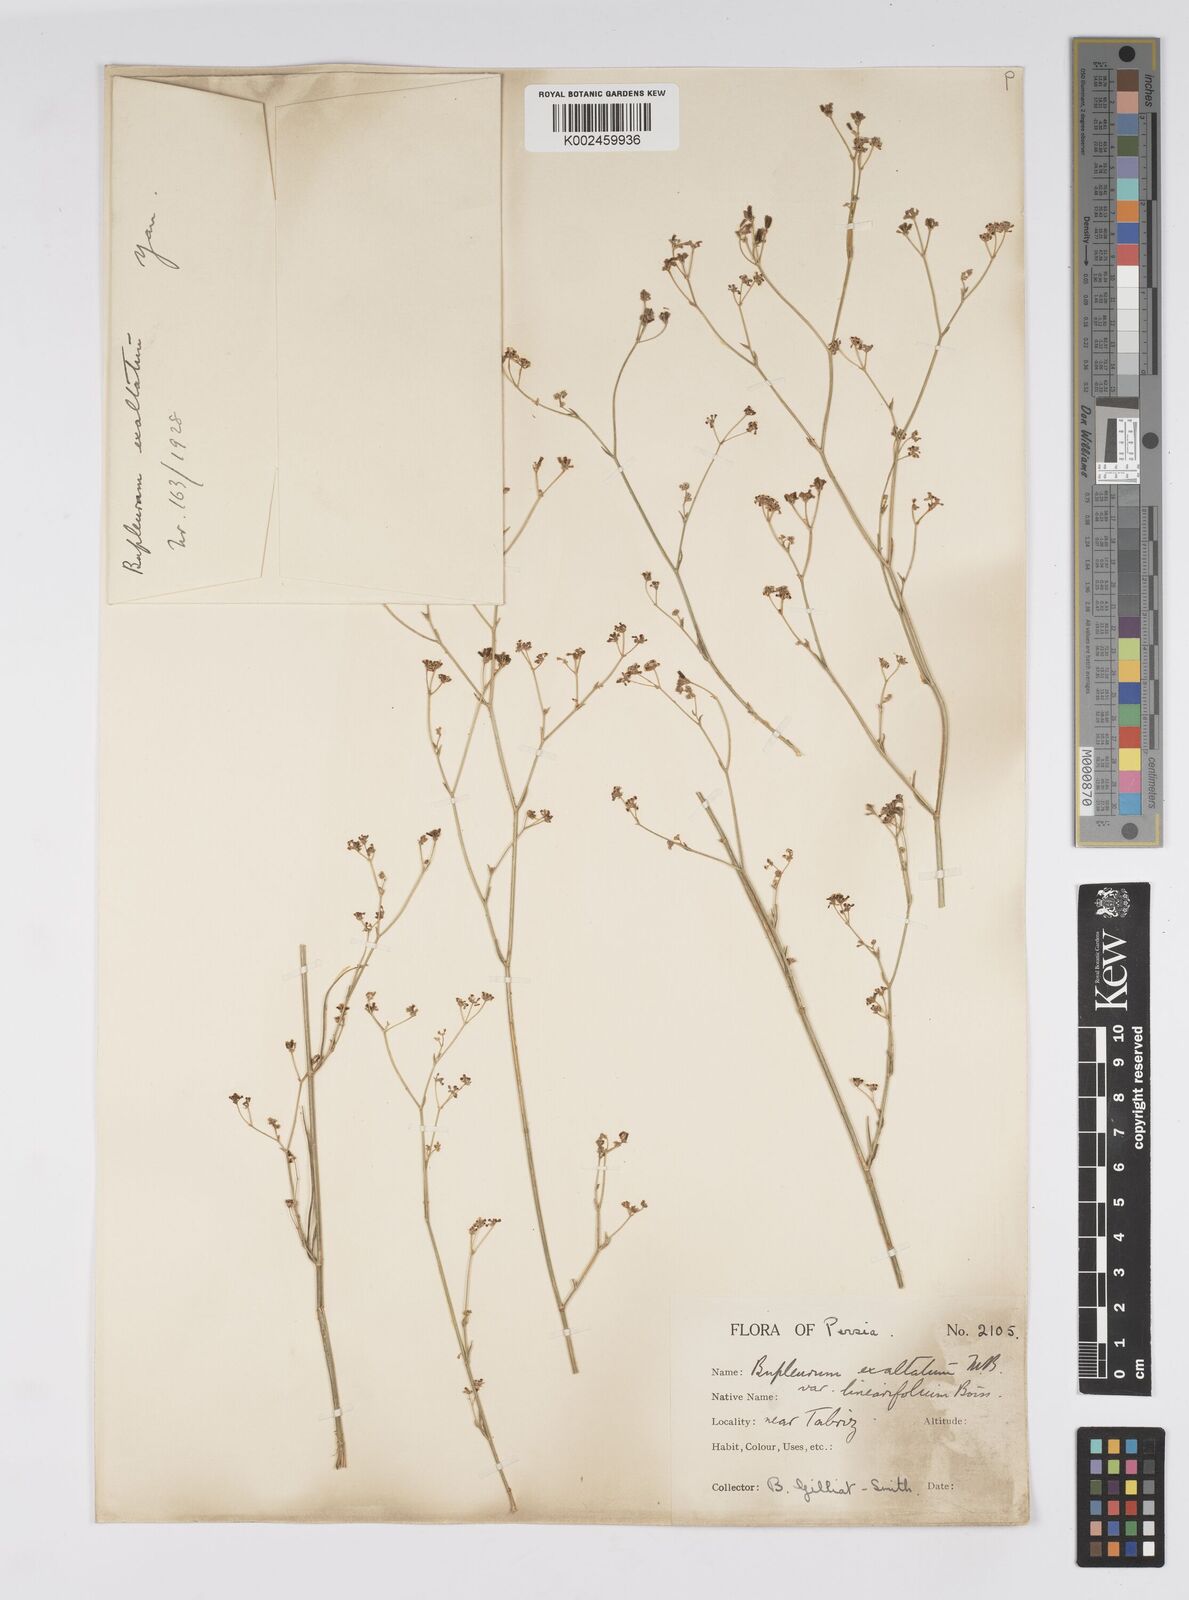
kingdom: Plantae
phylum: Tracheophyta
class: Magnoliopsida
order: Apiales
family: Apiaceae
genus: Bupleurum
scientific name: Bupleurum falcatum
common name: Sickle-leaved hare's-ear
